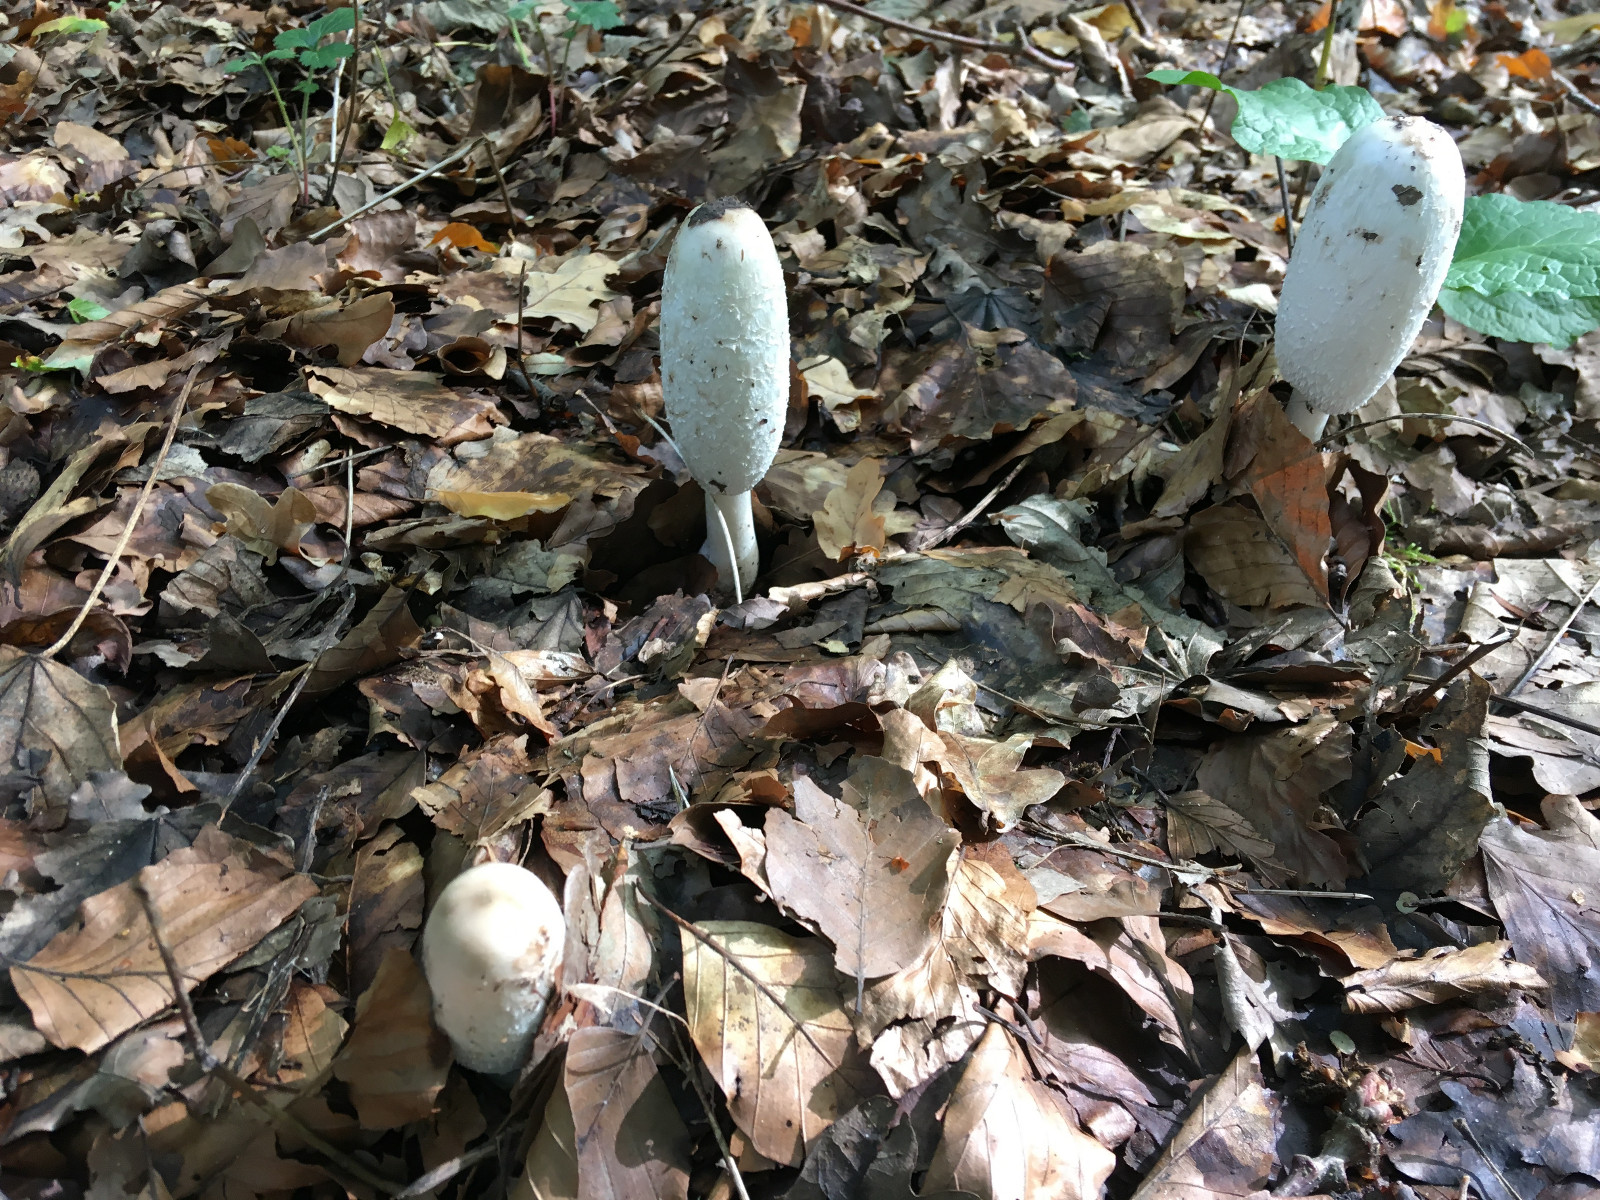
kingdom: Fungi
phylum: Basidiomycota
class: Agaricomycetes
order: Agaricales
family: Agaricaceae
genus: Coprinus
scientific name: Coprinus comatus
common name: stor parykhat
